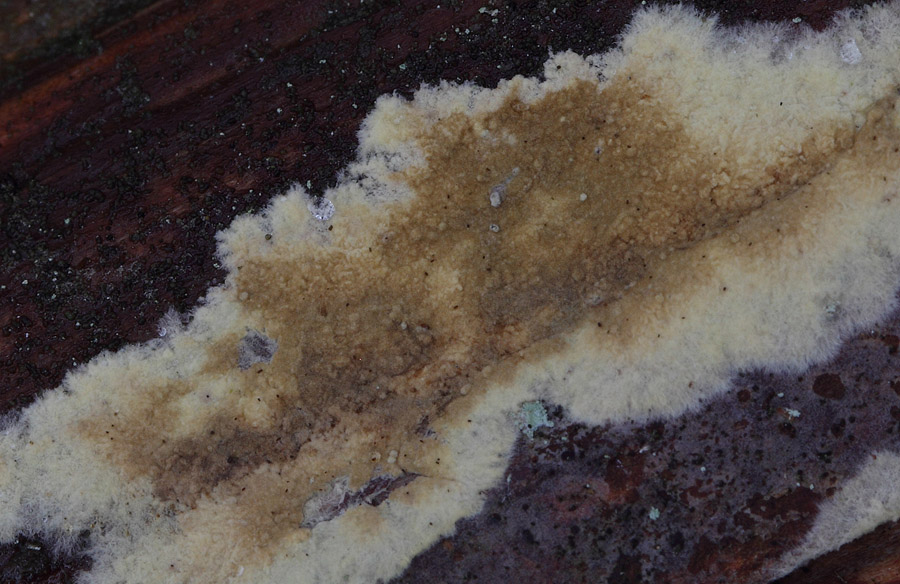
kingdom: Fungi
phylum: Basidiomycota
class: Agaricomycetes
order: Boletales
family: Coniophoraceae
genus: Coniophora
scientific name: Coniophora puteana
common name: gul tømmersvamp
